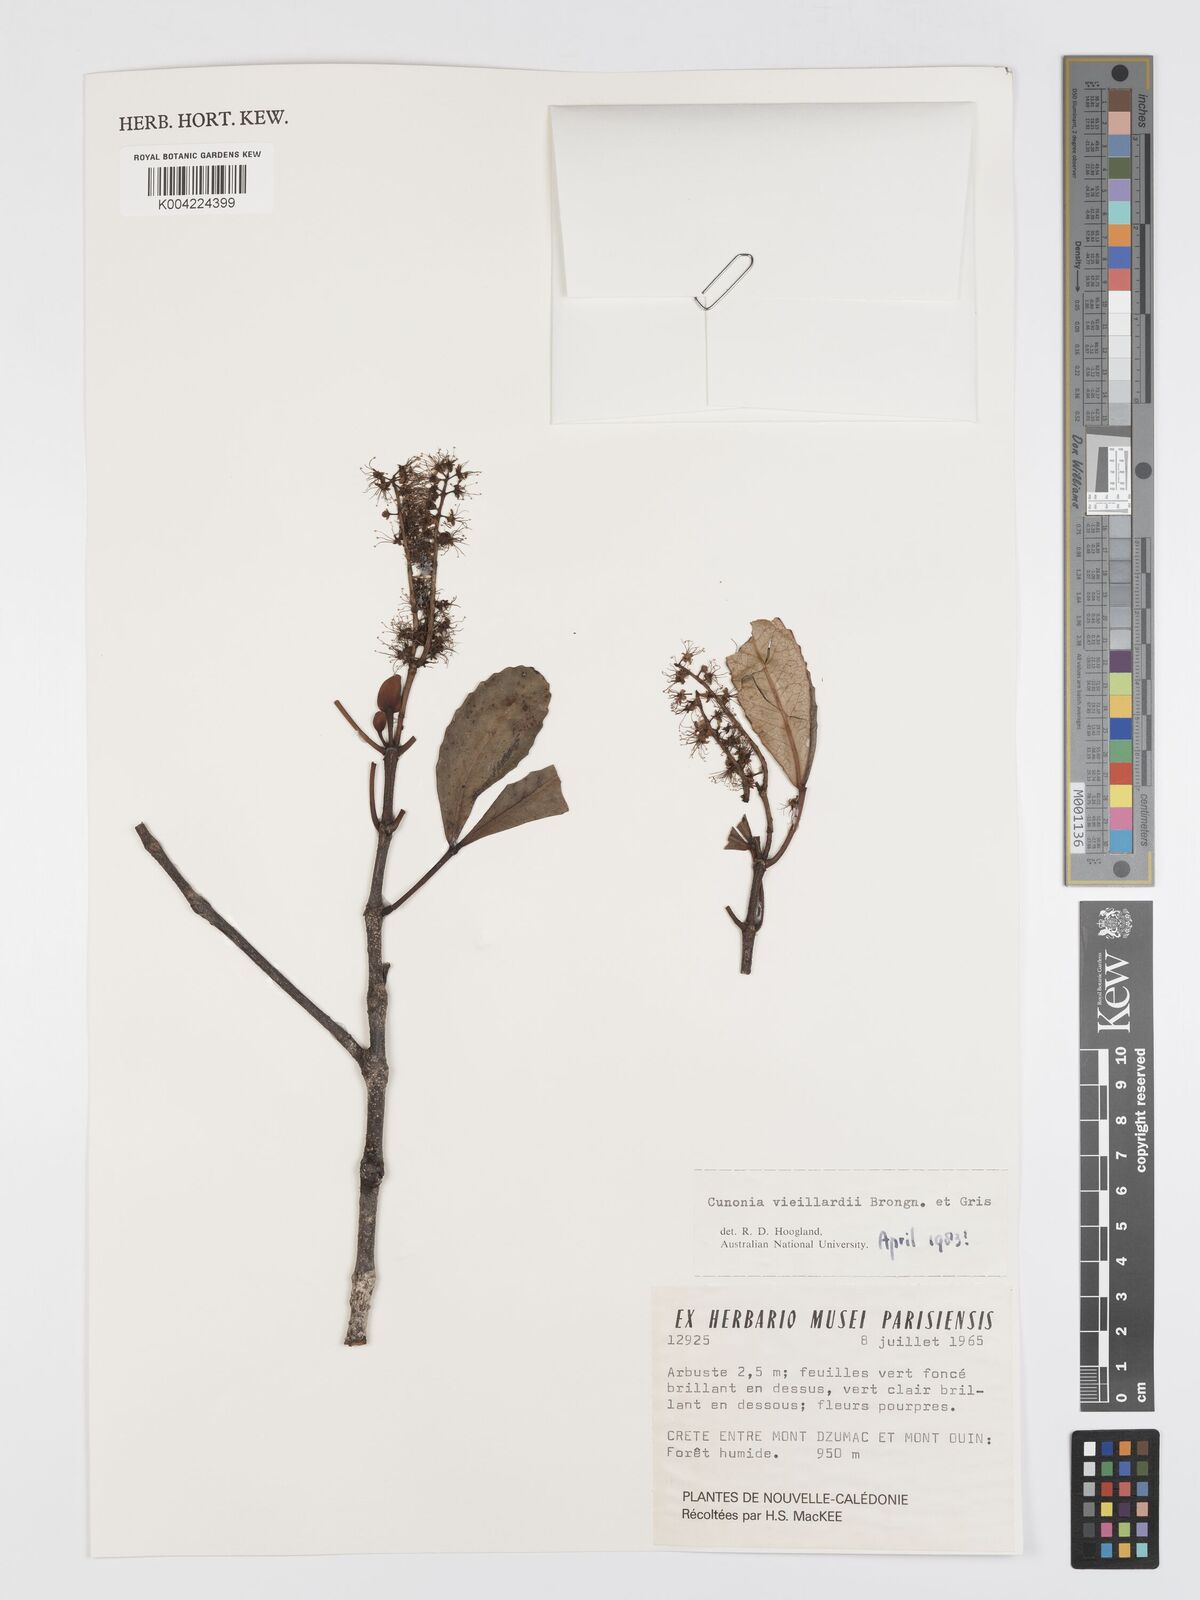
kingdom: Plantae
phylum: Tracheophyta
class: Magnoliopsida
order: Oxalidales
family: Cunoniaceae
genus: Cunonia
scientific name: Cunonia vieillardii
